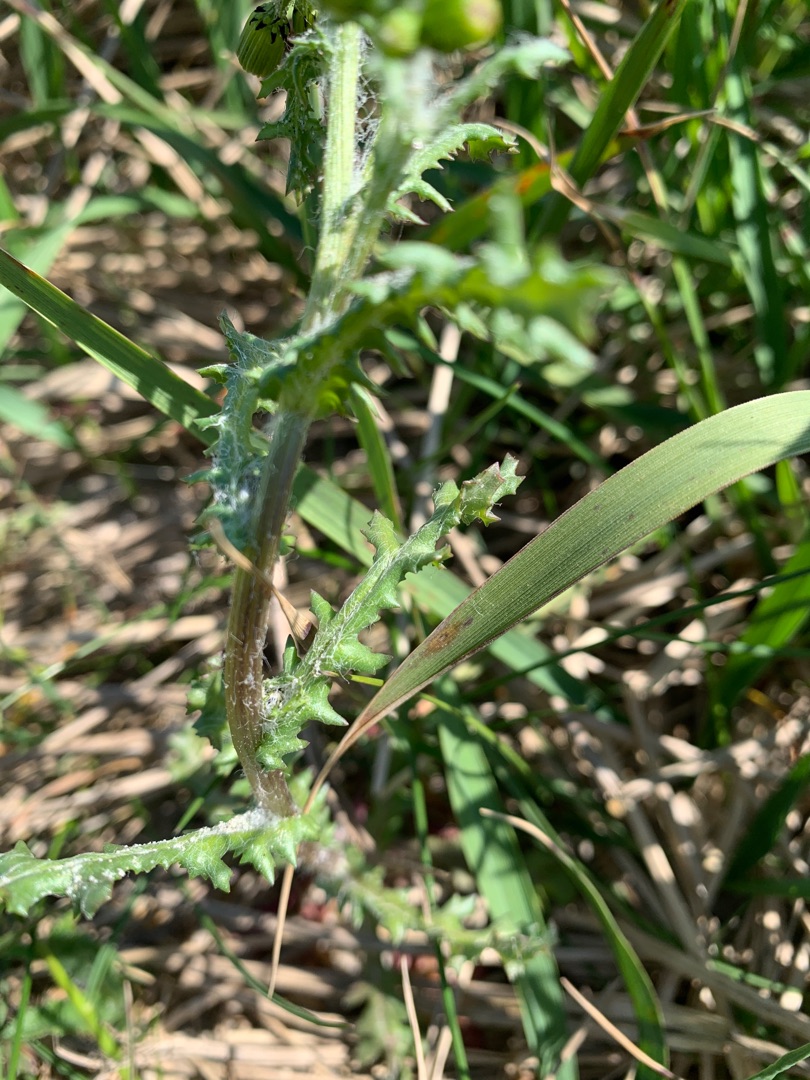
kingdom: Plantae
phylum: Tracheophyta
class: Magnoliopsida
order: Asterales
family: Asteraceae
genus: Senecio
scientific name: Senecio vulgaris
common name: Almindelig brandbæger
